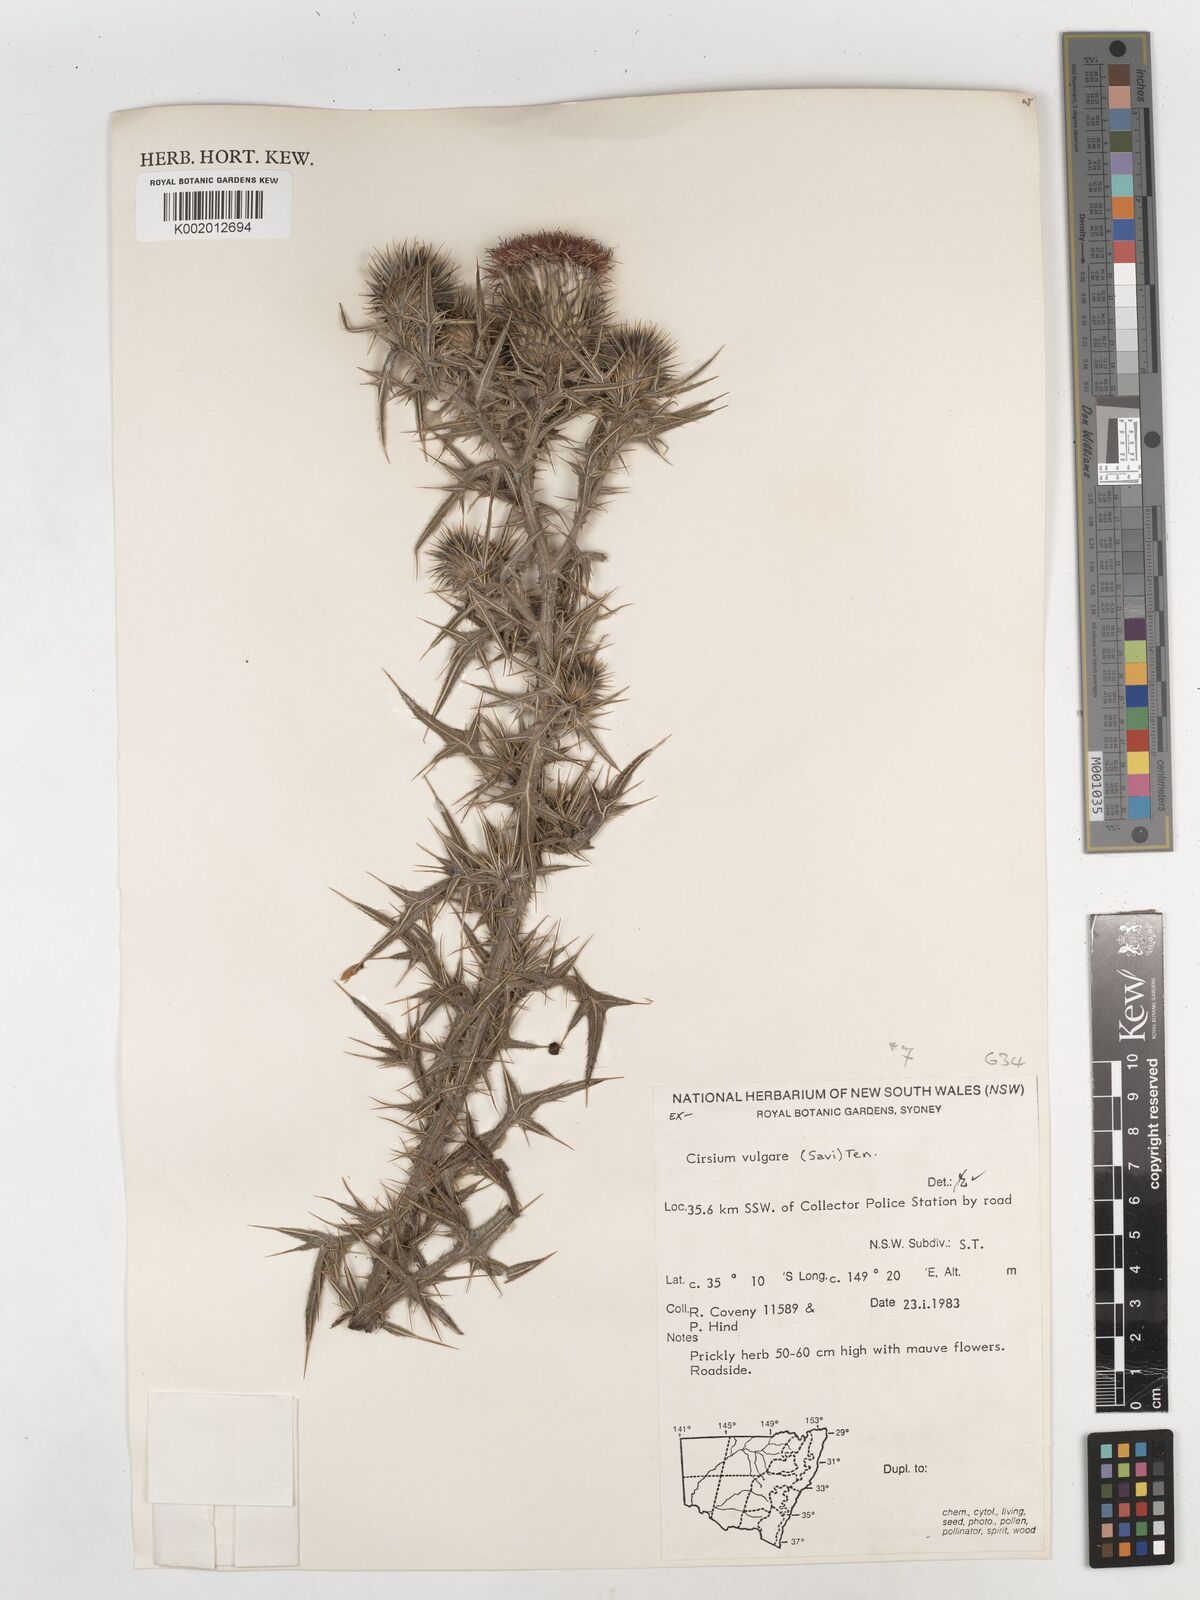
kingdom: Plantae
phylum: Tracheophyta
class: Magnoliopsida
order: Asterales
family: Asteraceae
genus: Cirsium
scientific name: Cirsium vulgare
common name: Bull thistle
